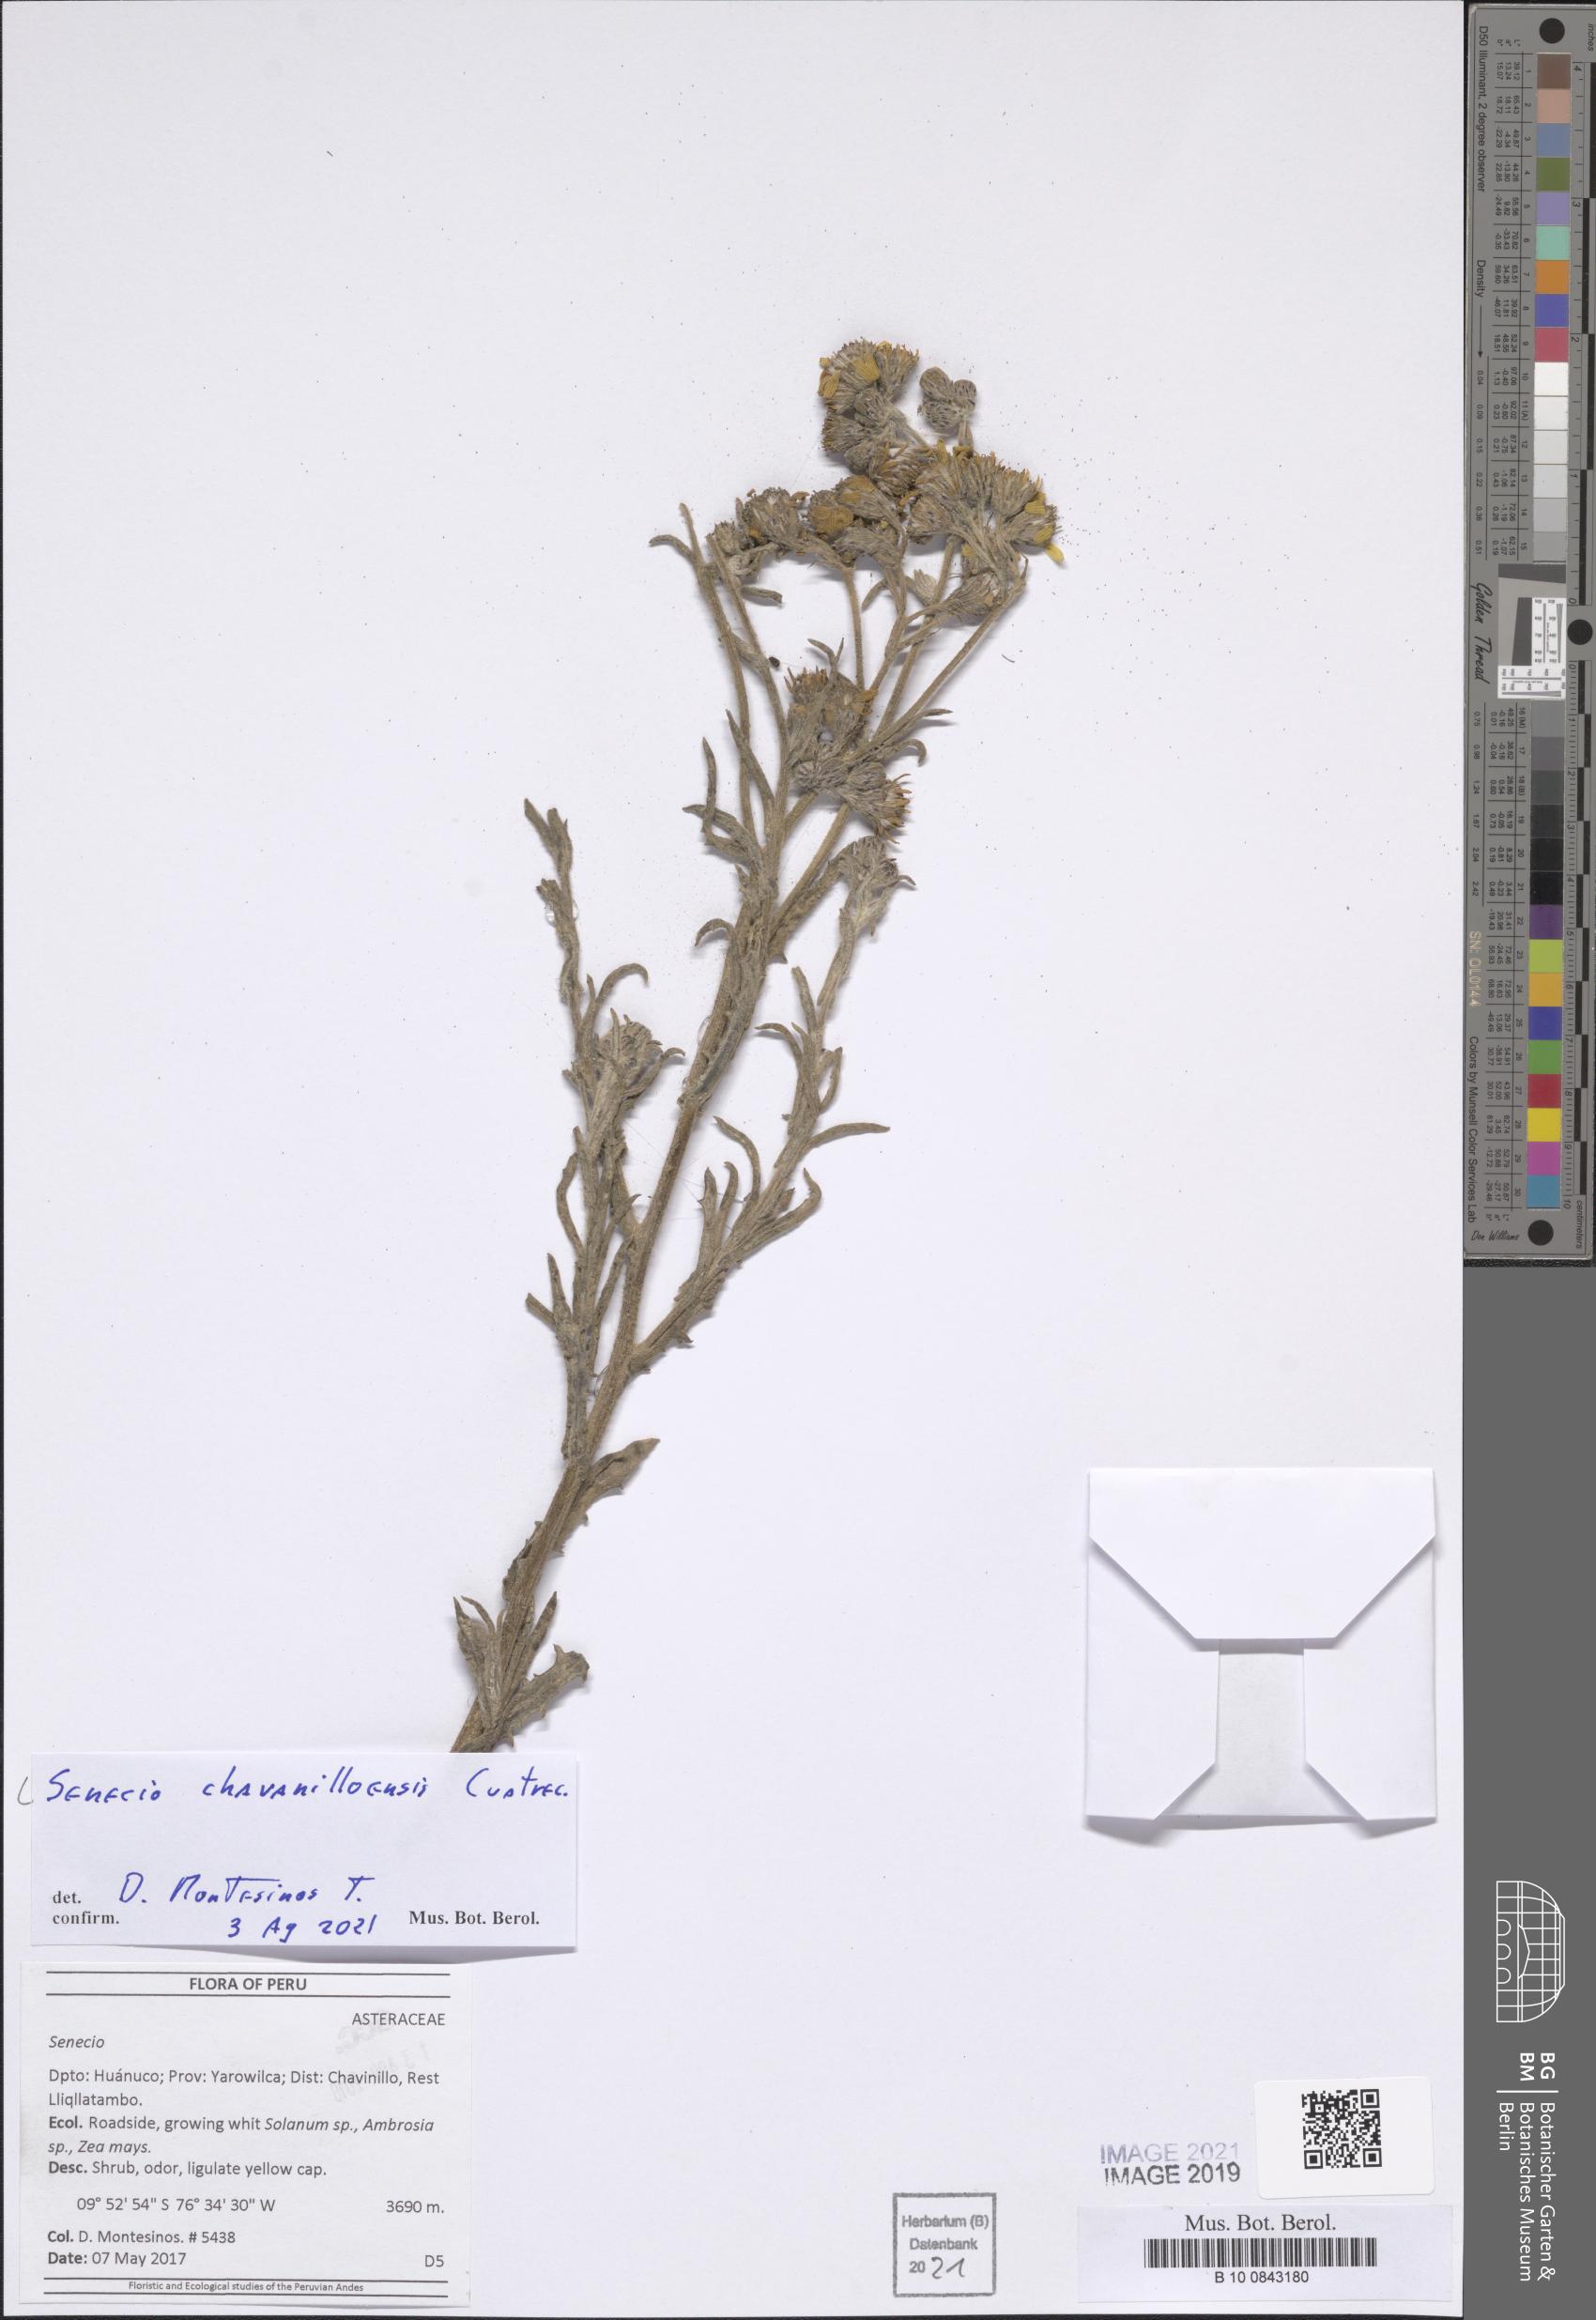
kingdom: Plantae
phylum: Tracheophyta
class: Magnoliopsida
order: Asterales
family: Asteraceae
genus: Senecio
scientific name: Senecio chavanilloensis
